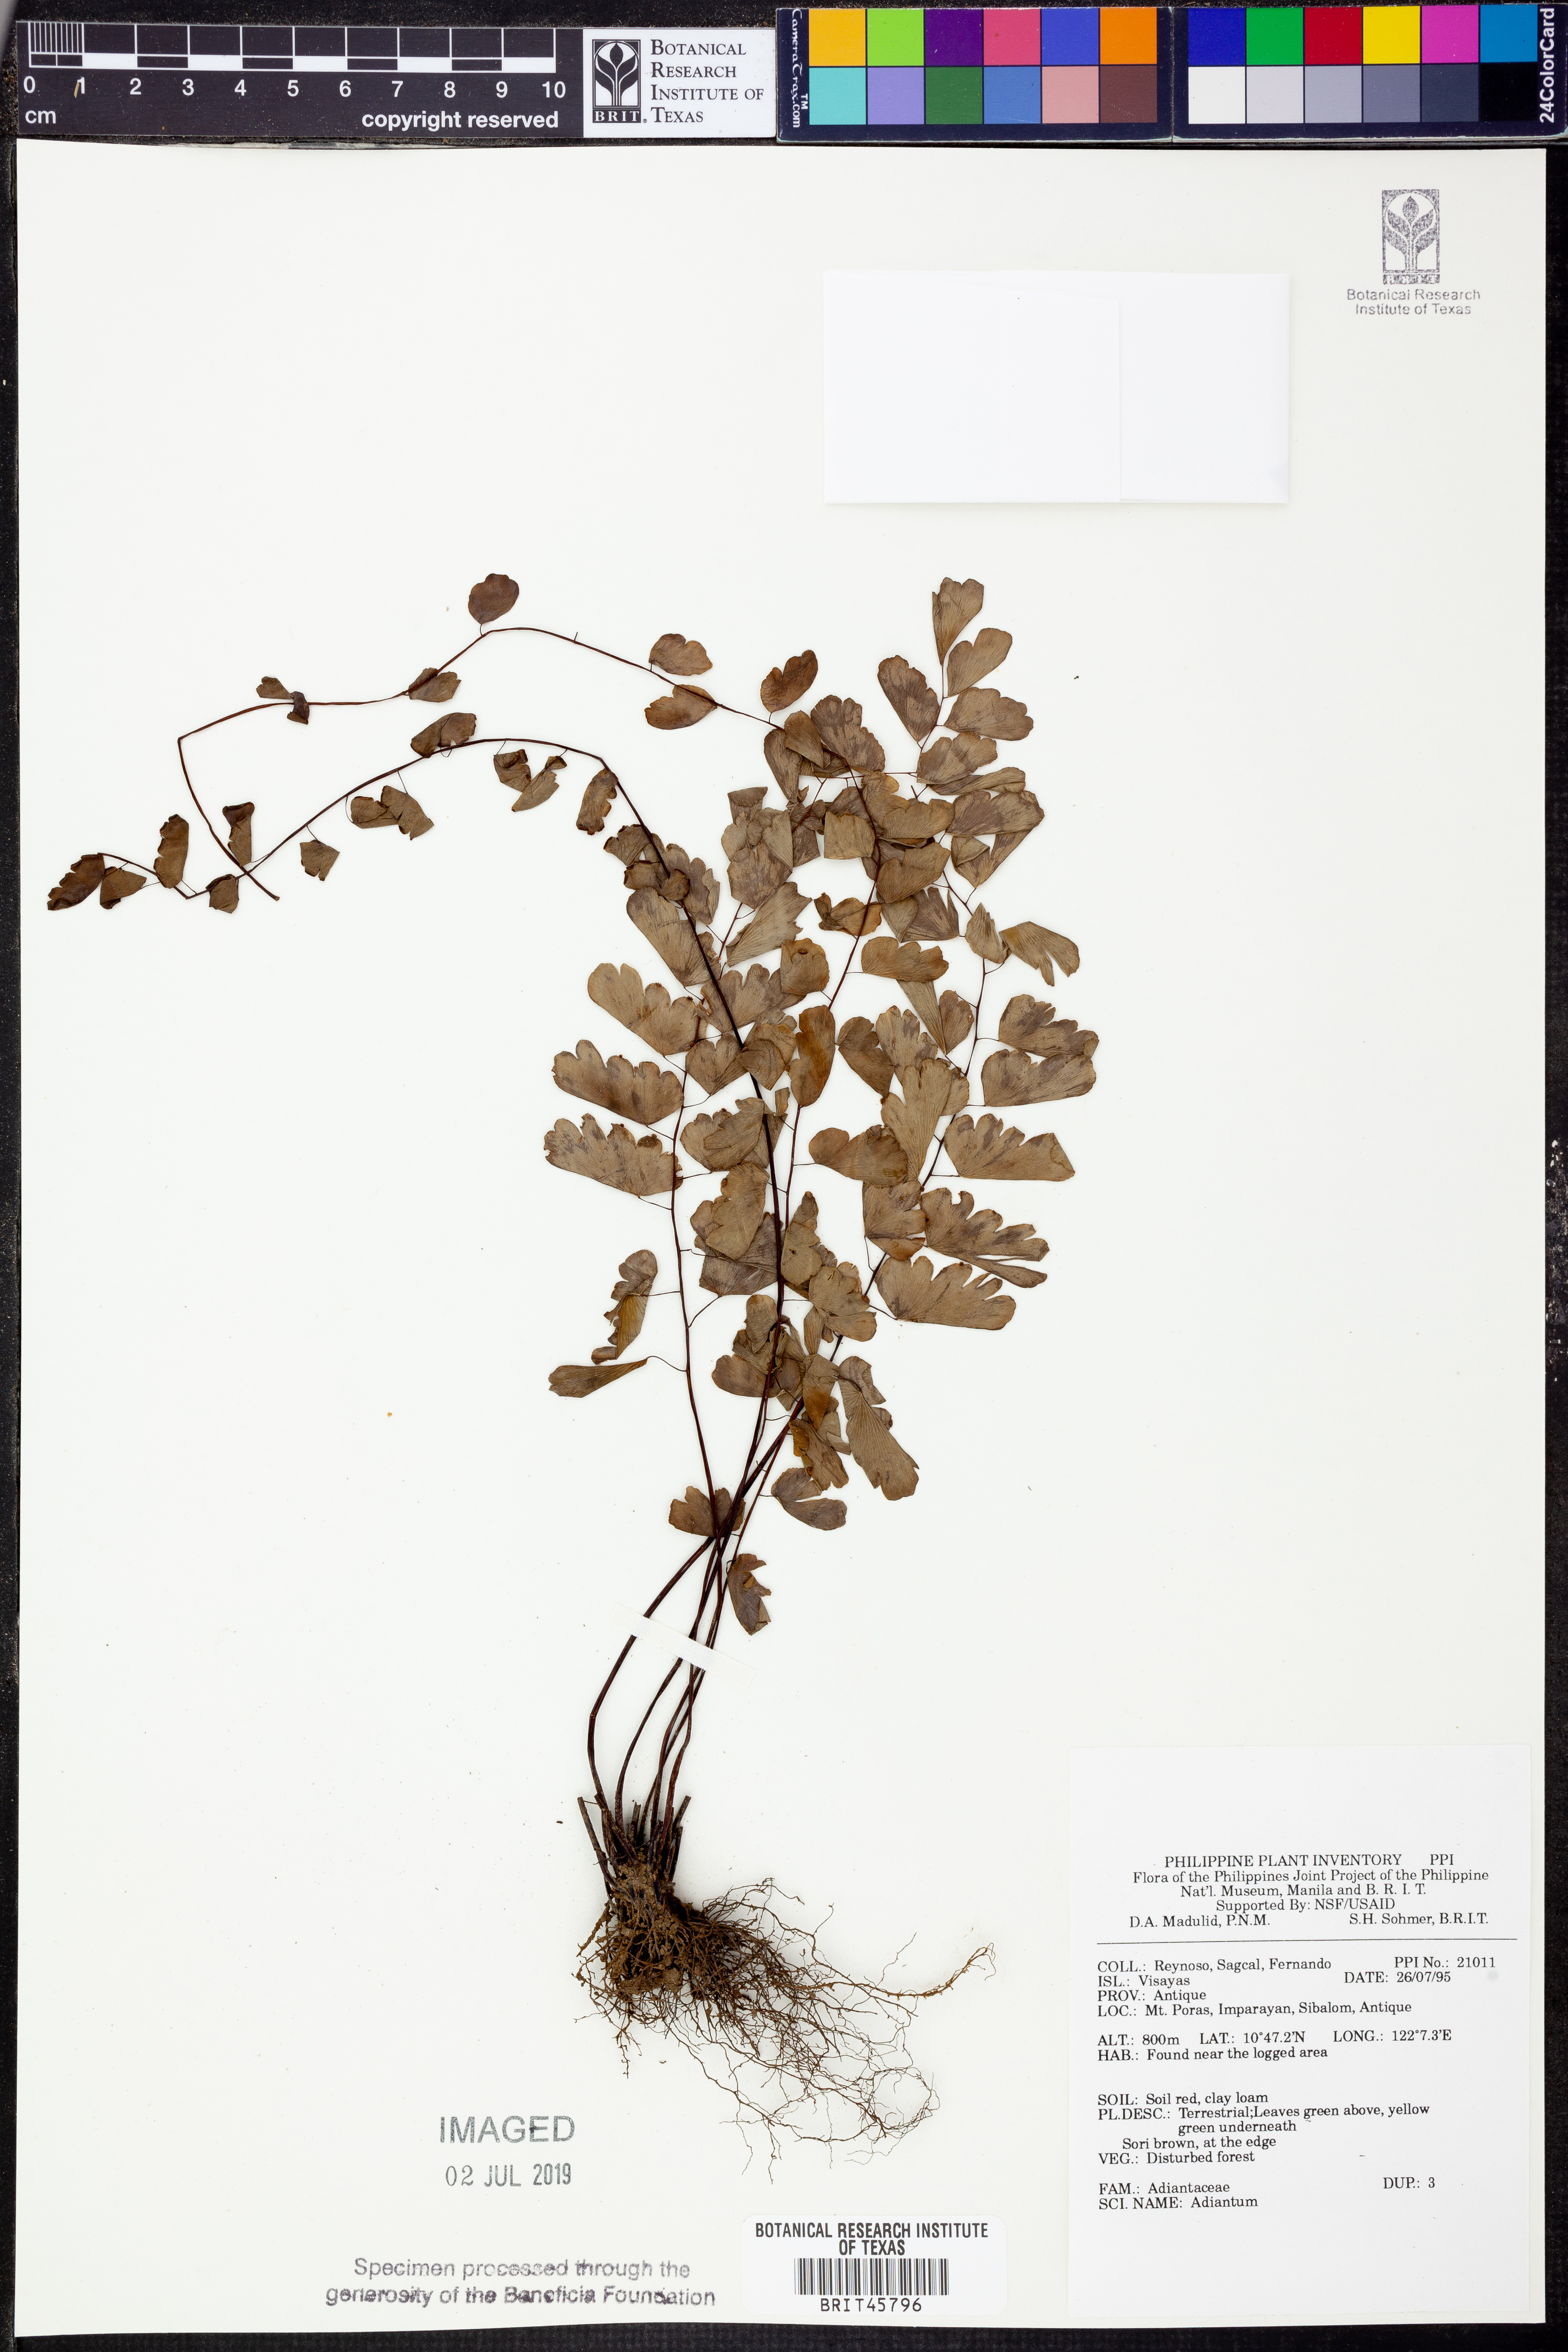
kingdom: Plantae
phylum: Tracheophyta
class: Polypodiopsida
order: Polypodiales
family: Pteridaceae
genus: Adiantum
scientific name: Adiantum
